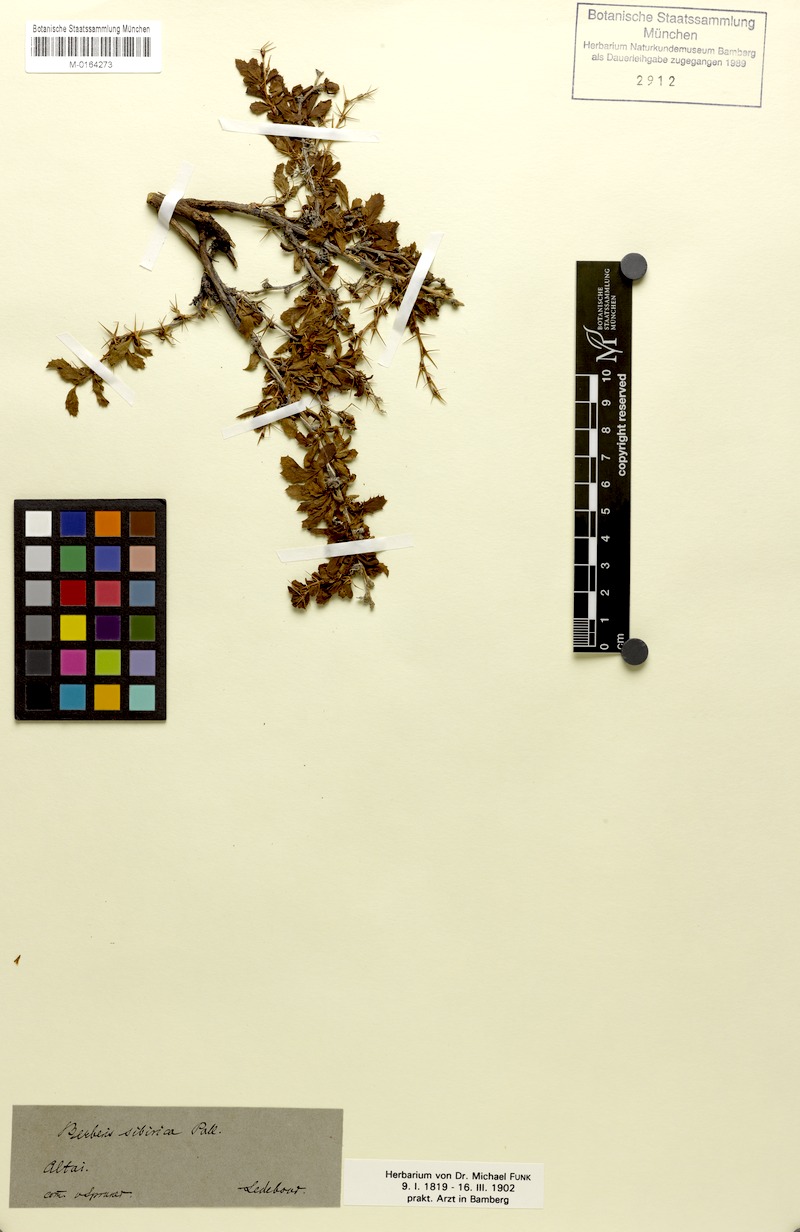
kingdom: Plantae
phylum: Tracheophyta
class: Magnoliopsida
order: Ranunculales
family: Berberidaceae
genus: Berberis
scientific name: Berberis sibirica
